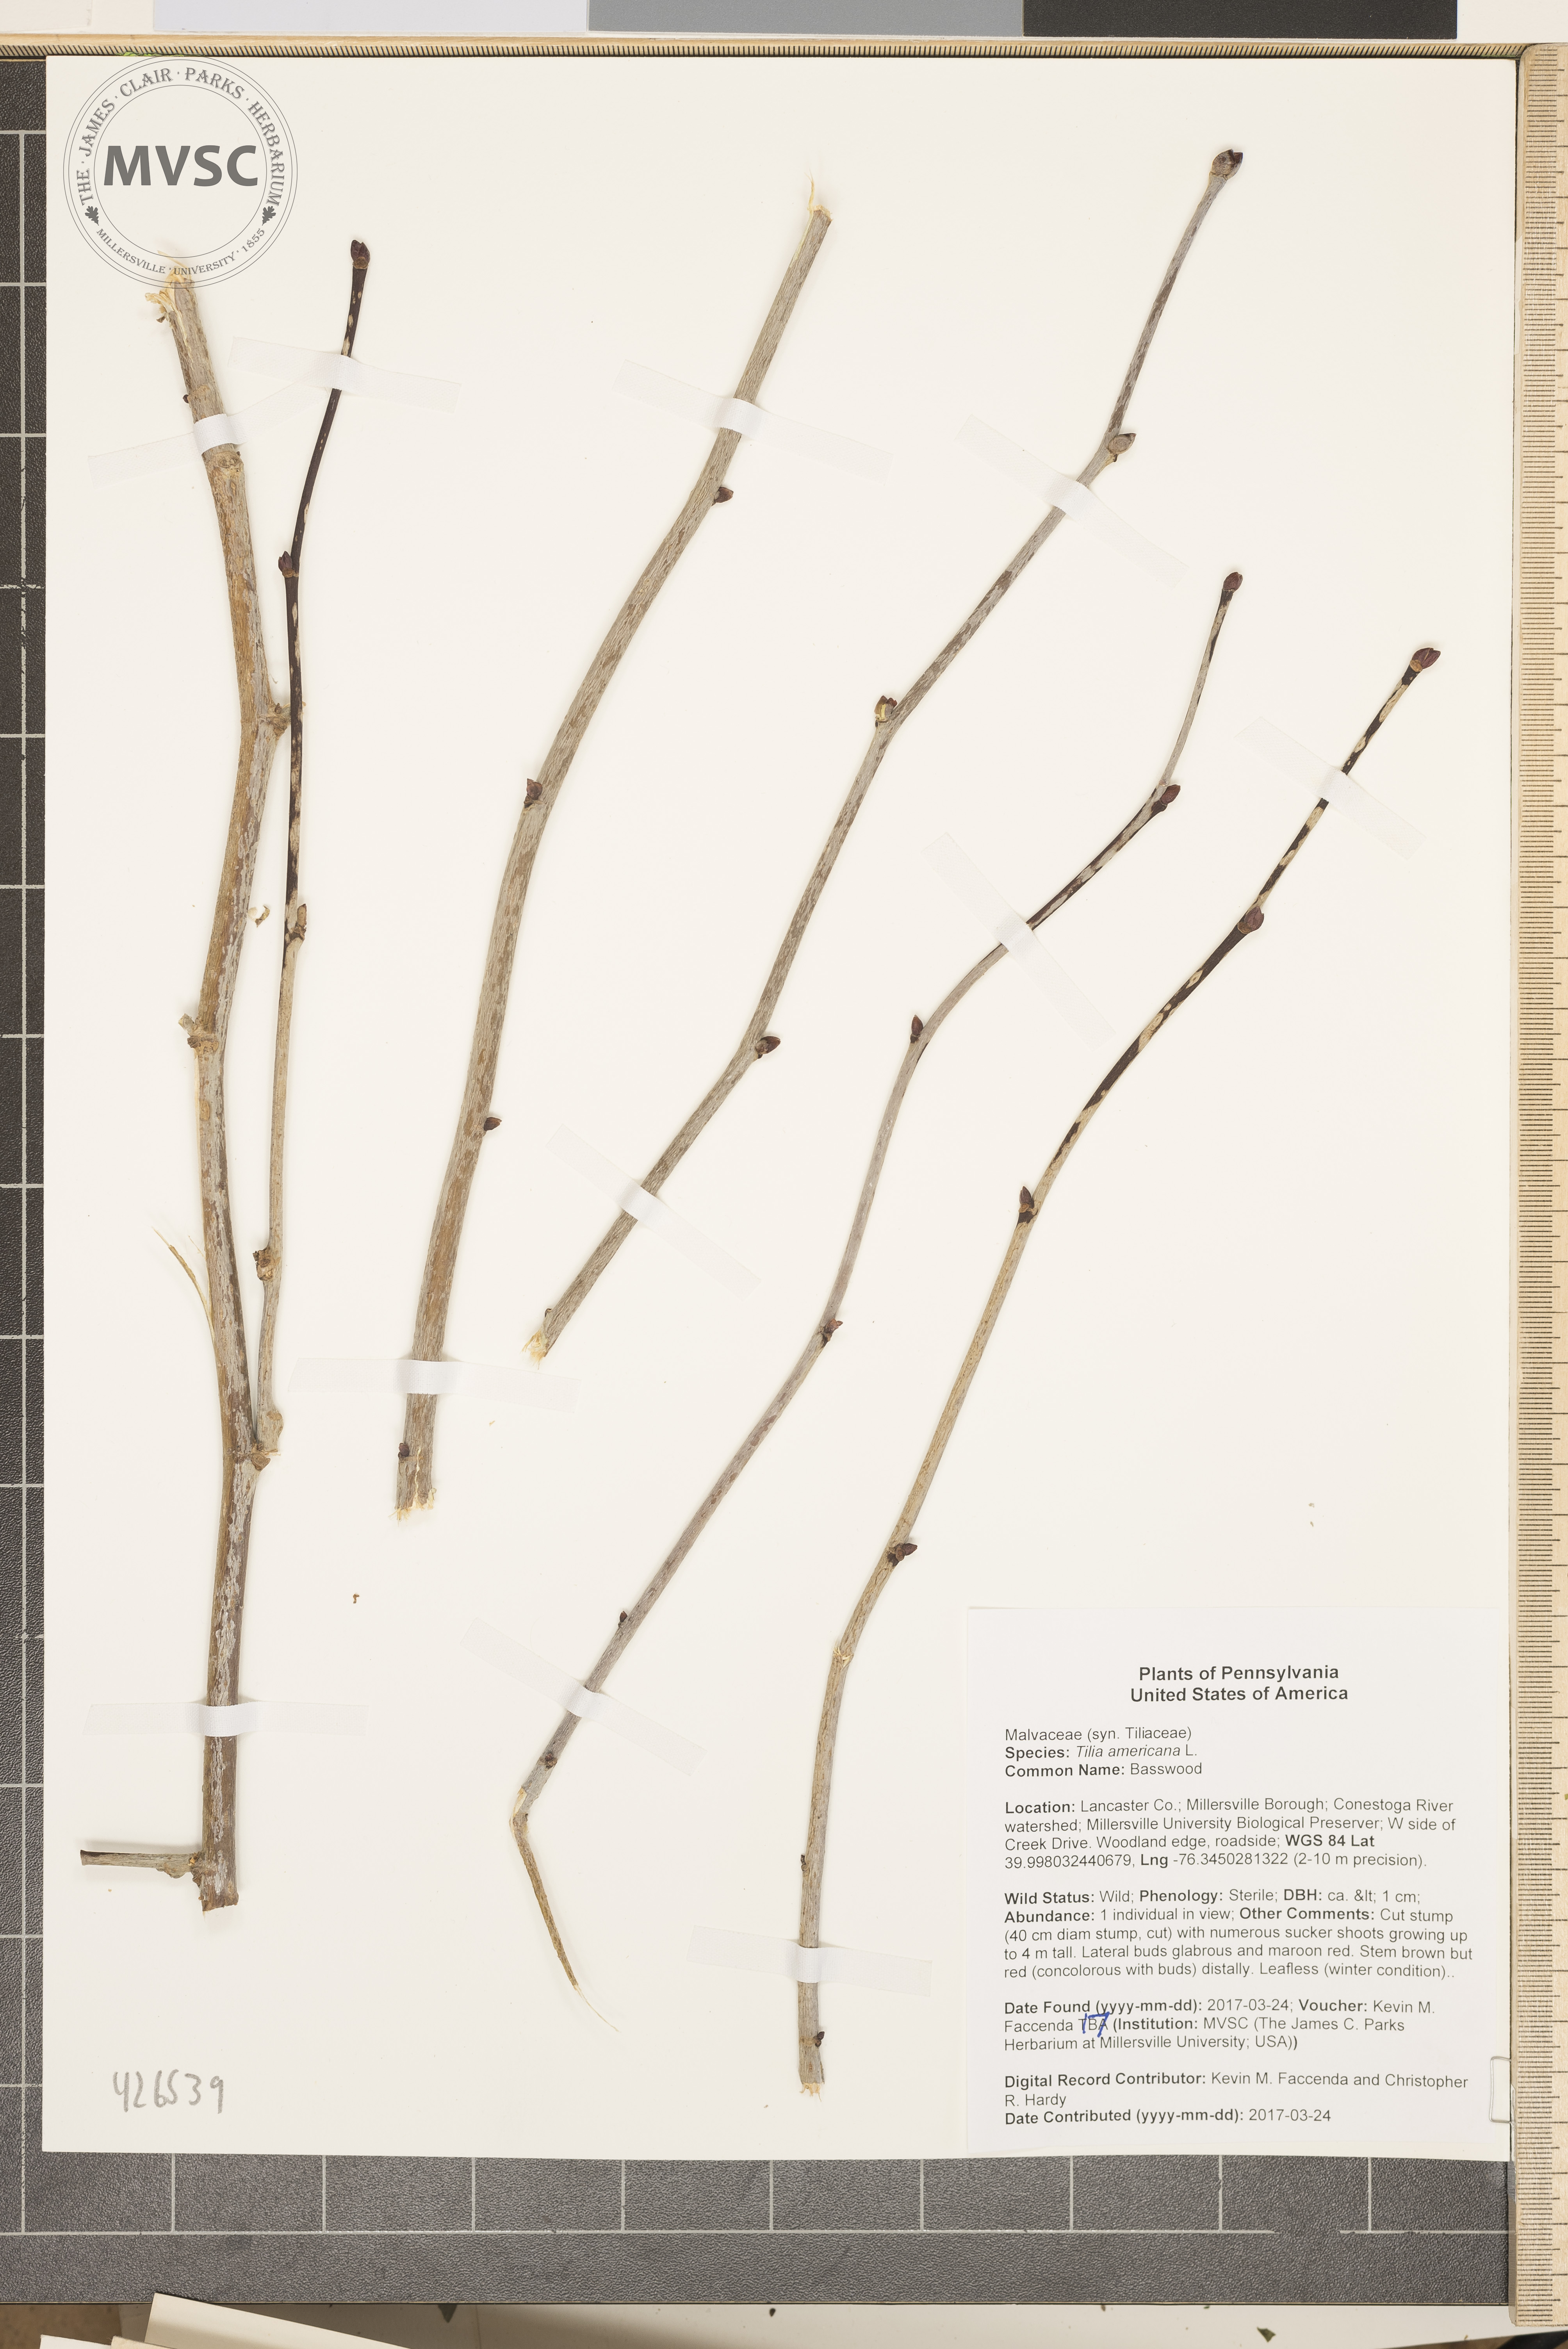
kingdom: Plantae
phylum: Tracheophyta
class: Magnoliopsida
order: Malvales
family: Malvaceae
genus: Tilia
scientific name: Tilia americana
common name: Basswood
